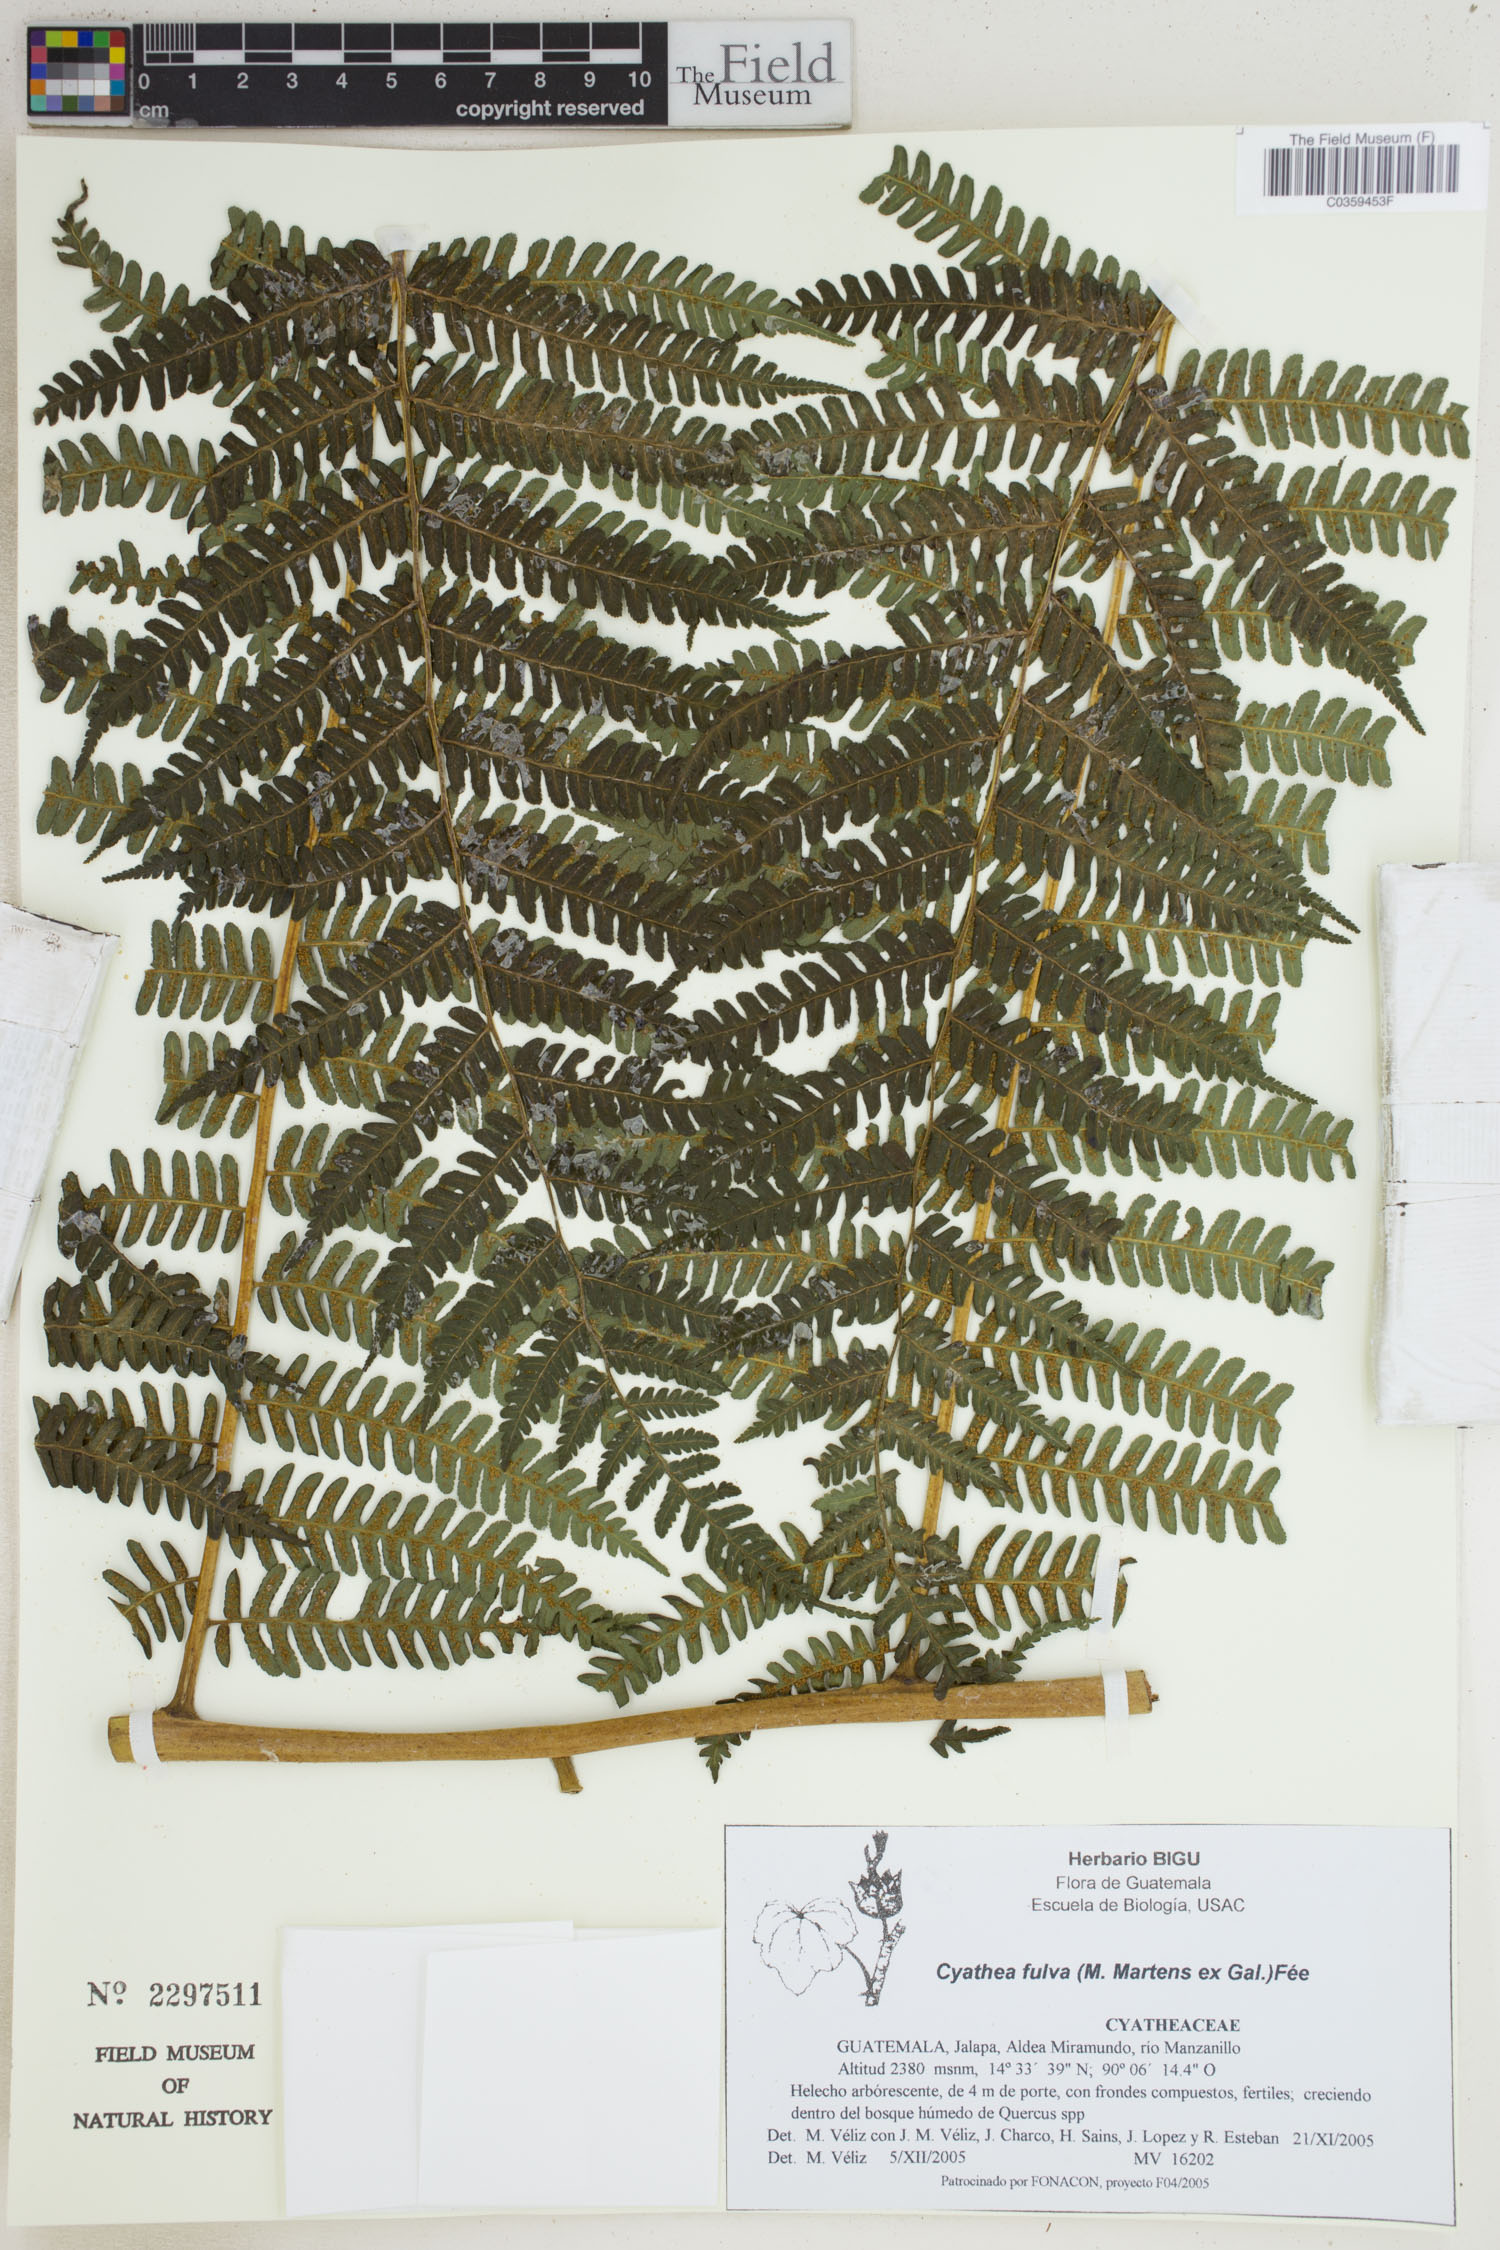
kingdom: Plantae
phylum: Tracheophyta
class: Polypodiopsida
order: Cyatheales
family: Cyatheaceae
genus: Cyathea
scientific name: Cyathea fulva
